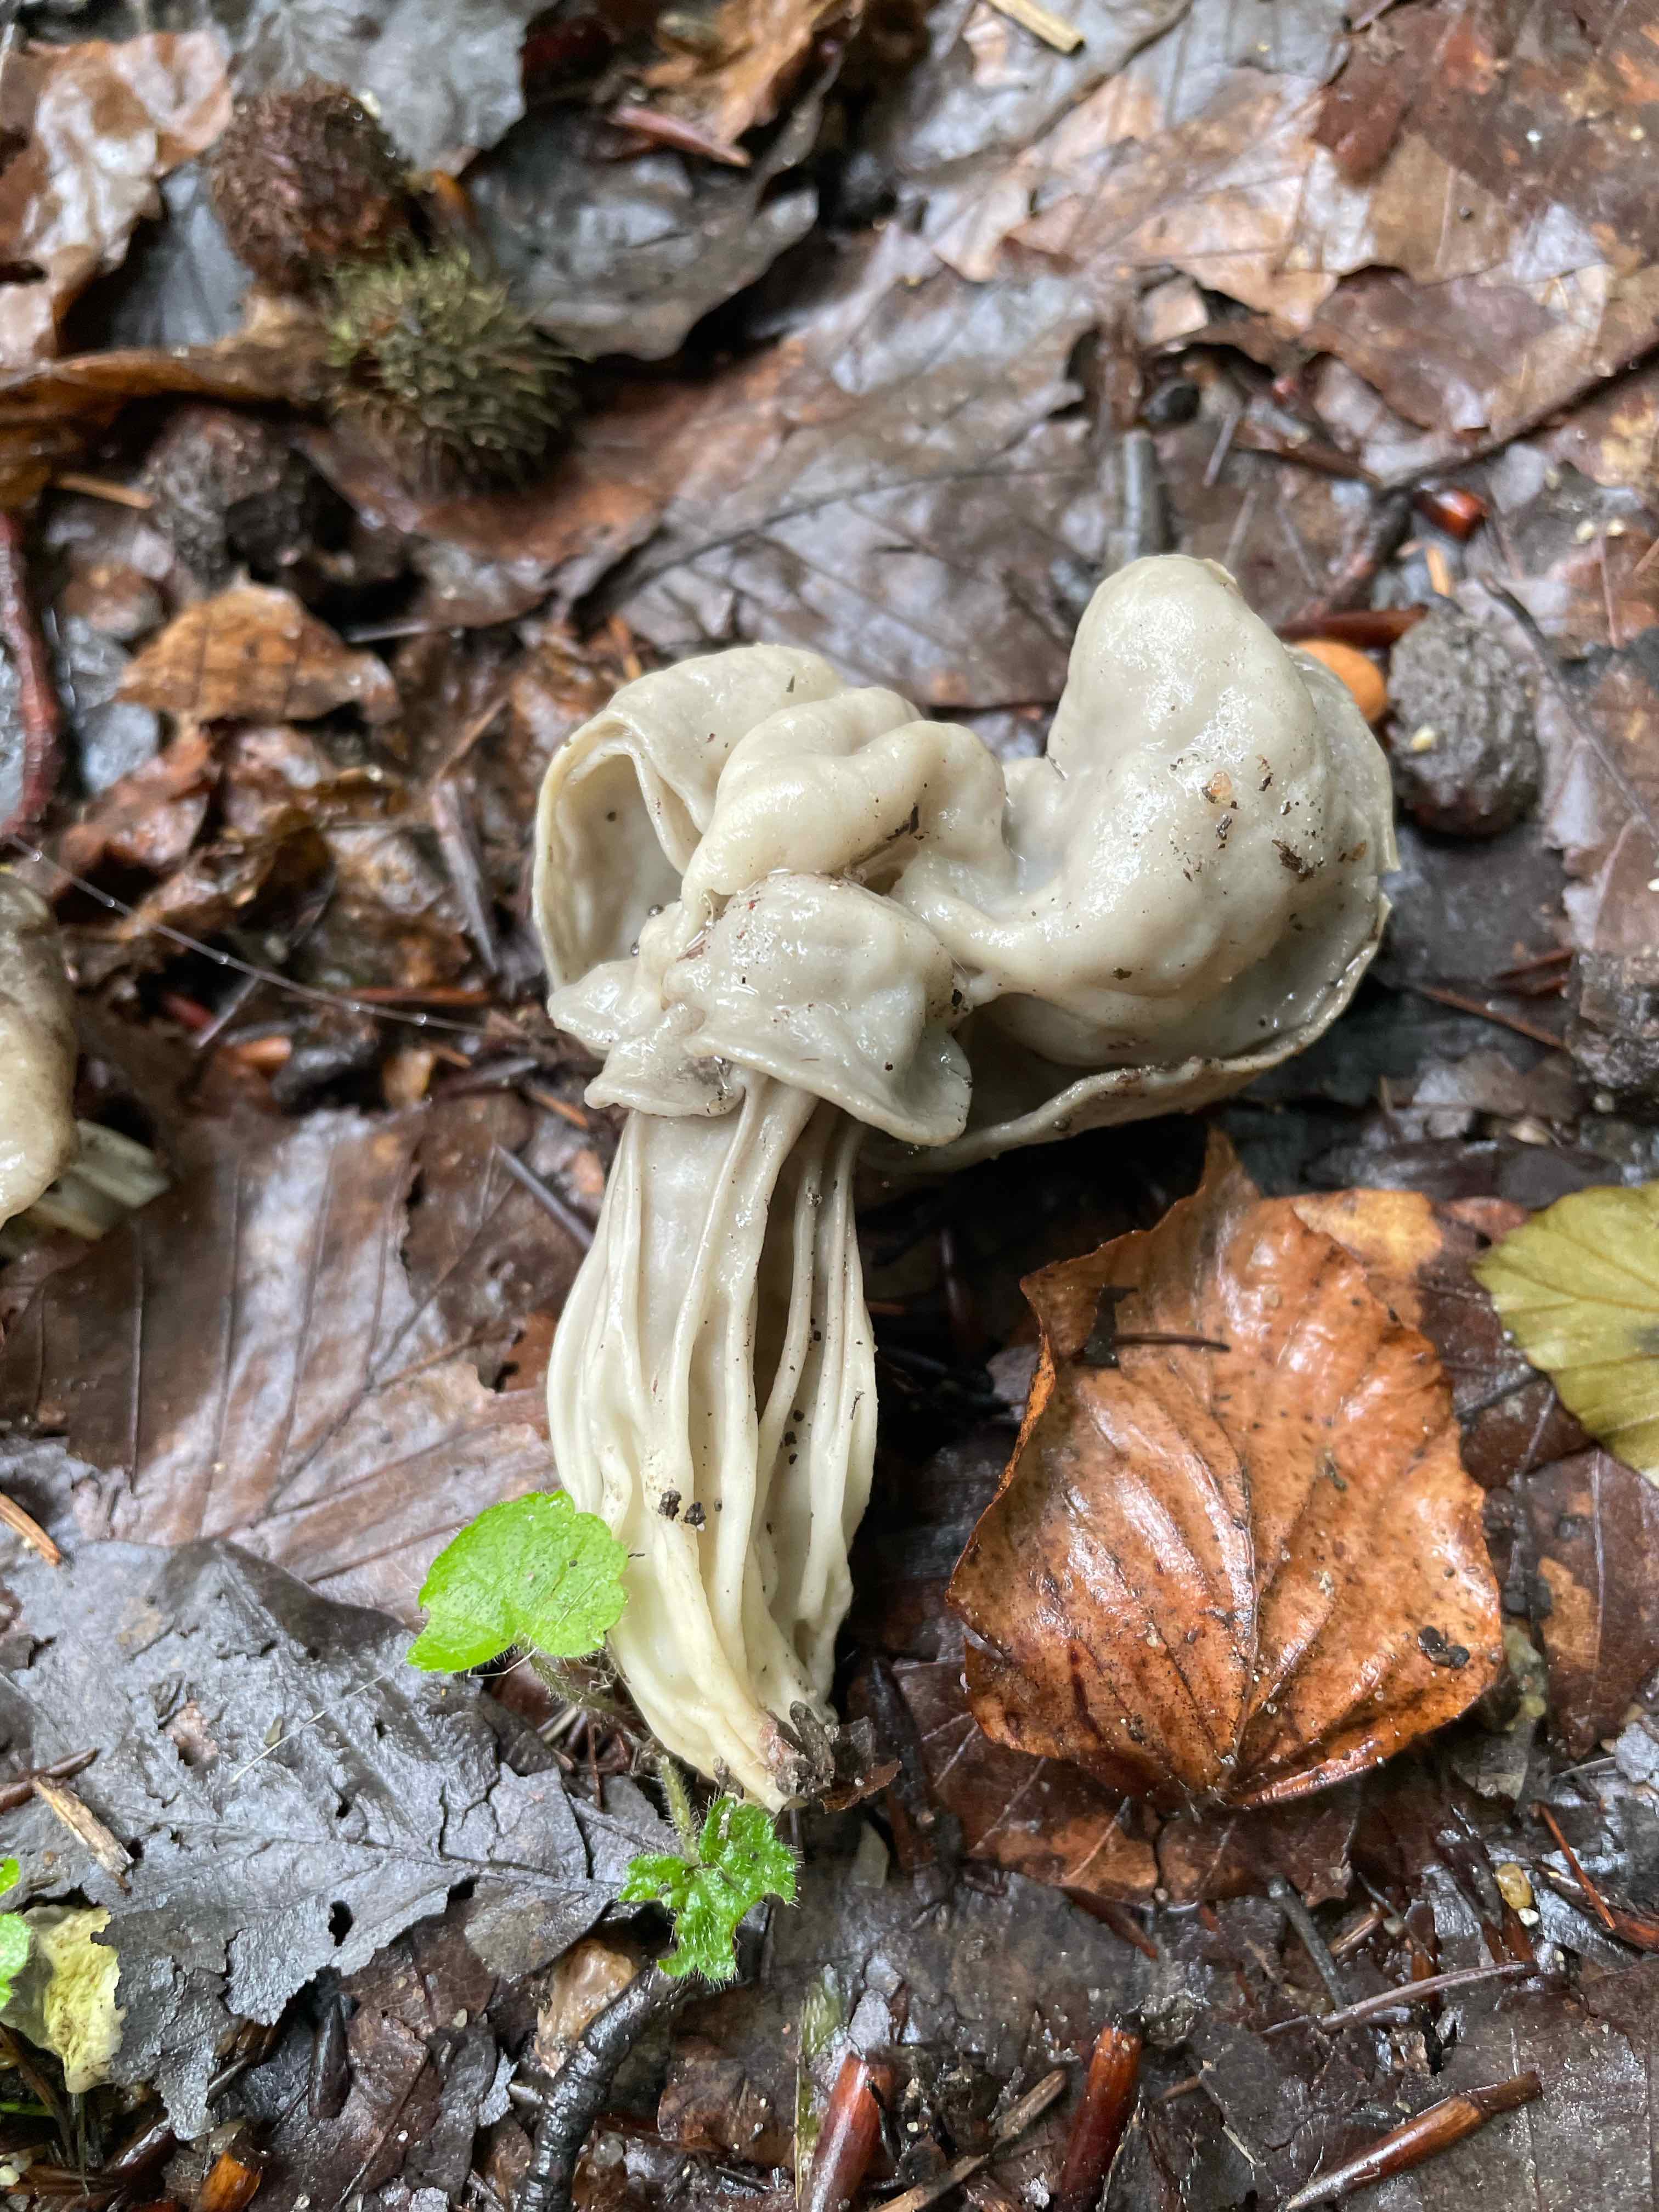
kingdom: Fungi
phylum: Ascomycota
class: Pezizomycetes
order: Pezizales
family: Helvellaceae
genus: Helvella
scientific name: Helvella crispa
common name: kruset foldhat
